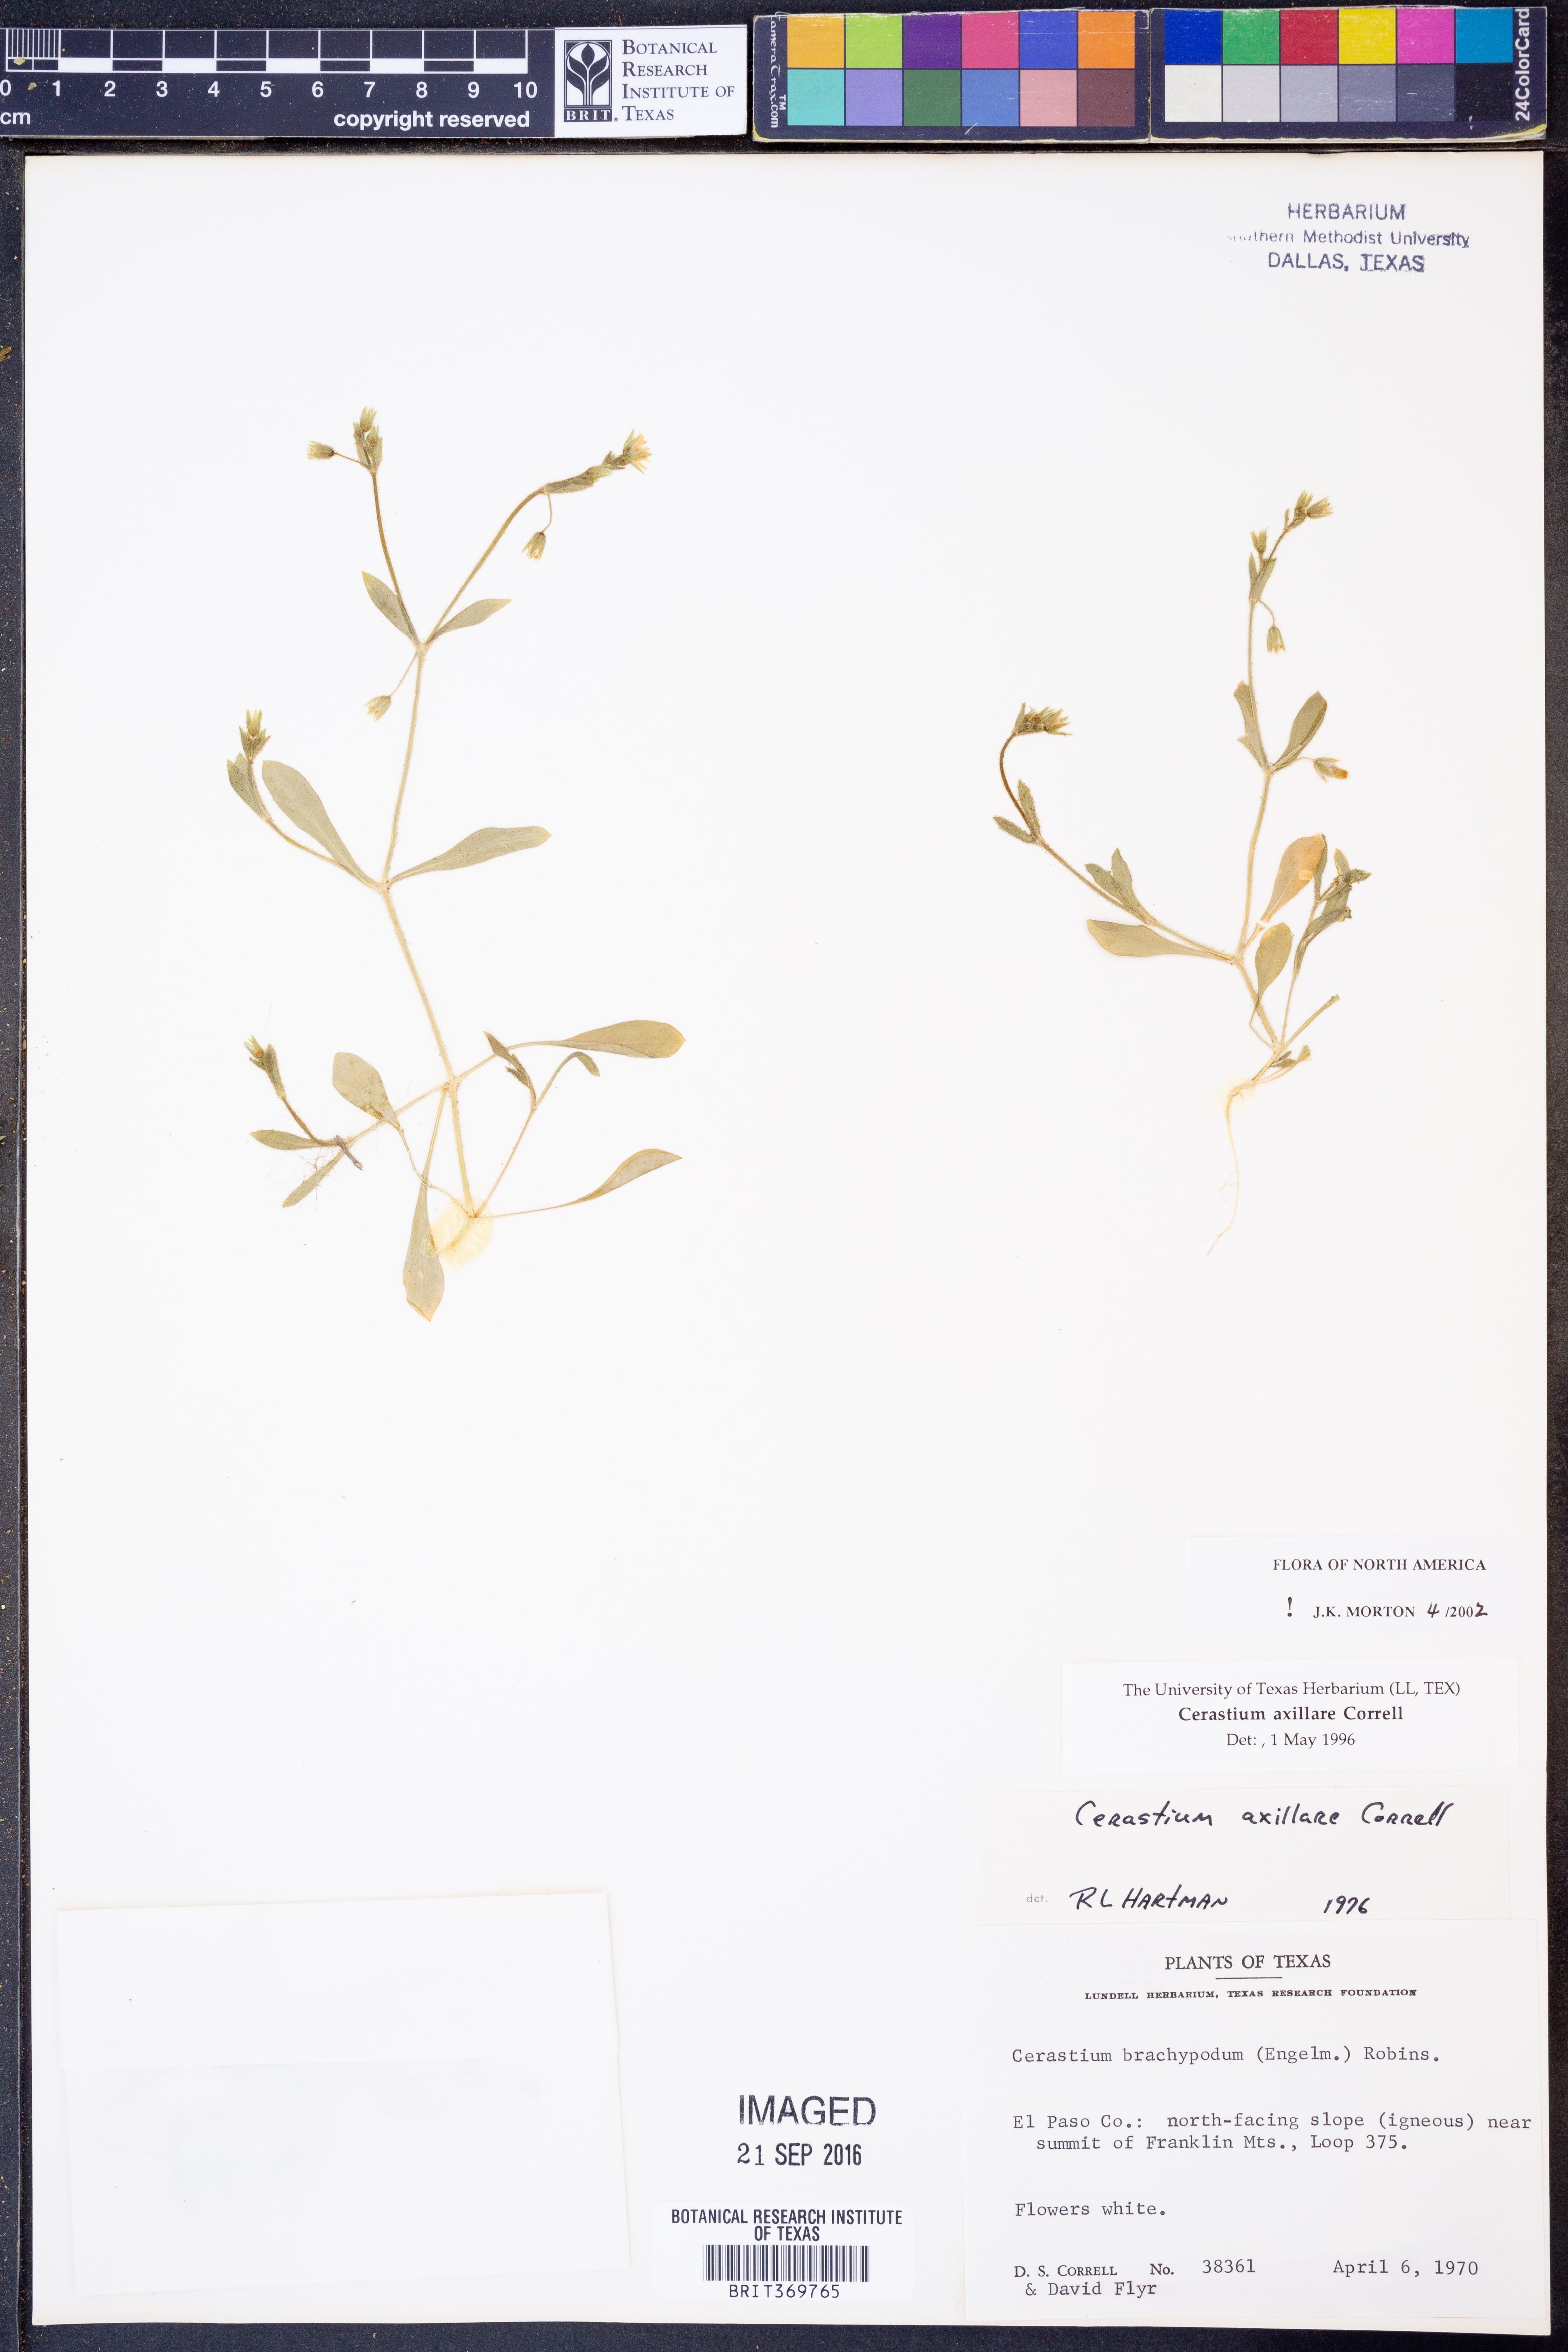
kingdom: Plantae
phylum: Tracheophyta
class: Magnoliopsida
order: Caryophyllales
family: Caryophyllaceae
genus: Cerastium
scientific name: Cerastium axillare
